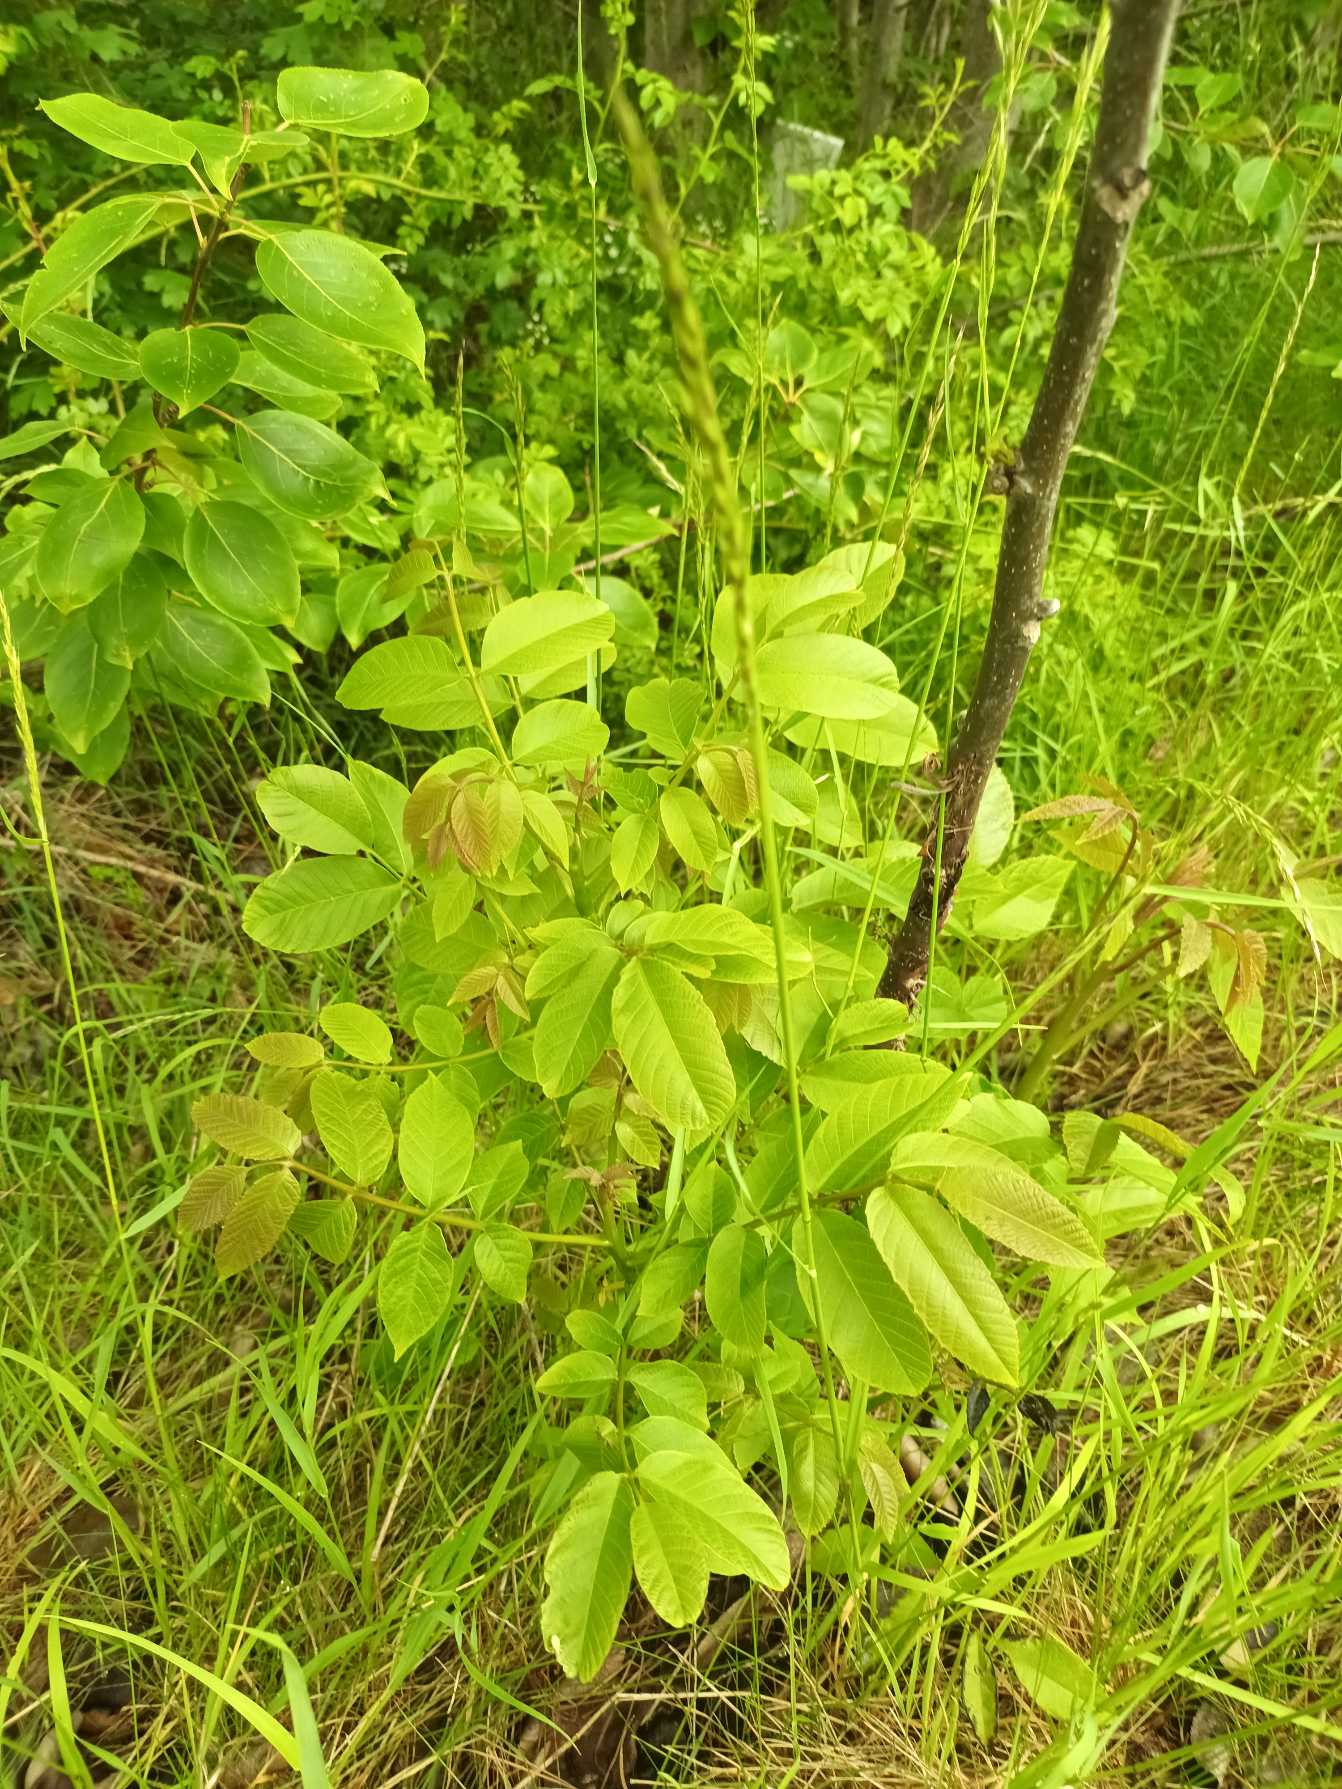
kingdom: Plantae
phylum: Tracheophyta
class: Magnoliopsida
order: Fagales
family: Juglandaceae
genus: Juglans
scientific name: Juglans regia
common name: Almindelig valnød
